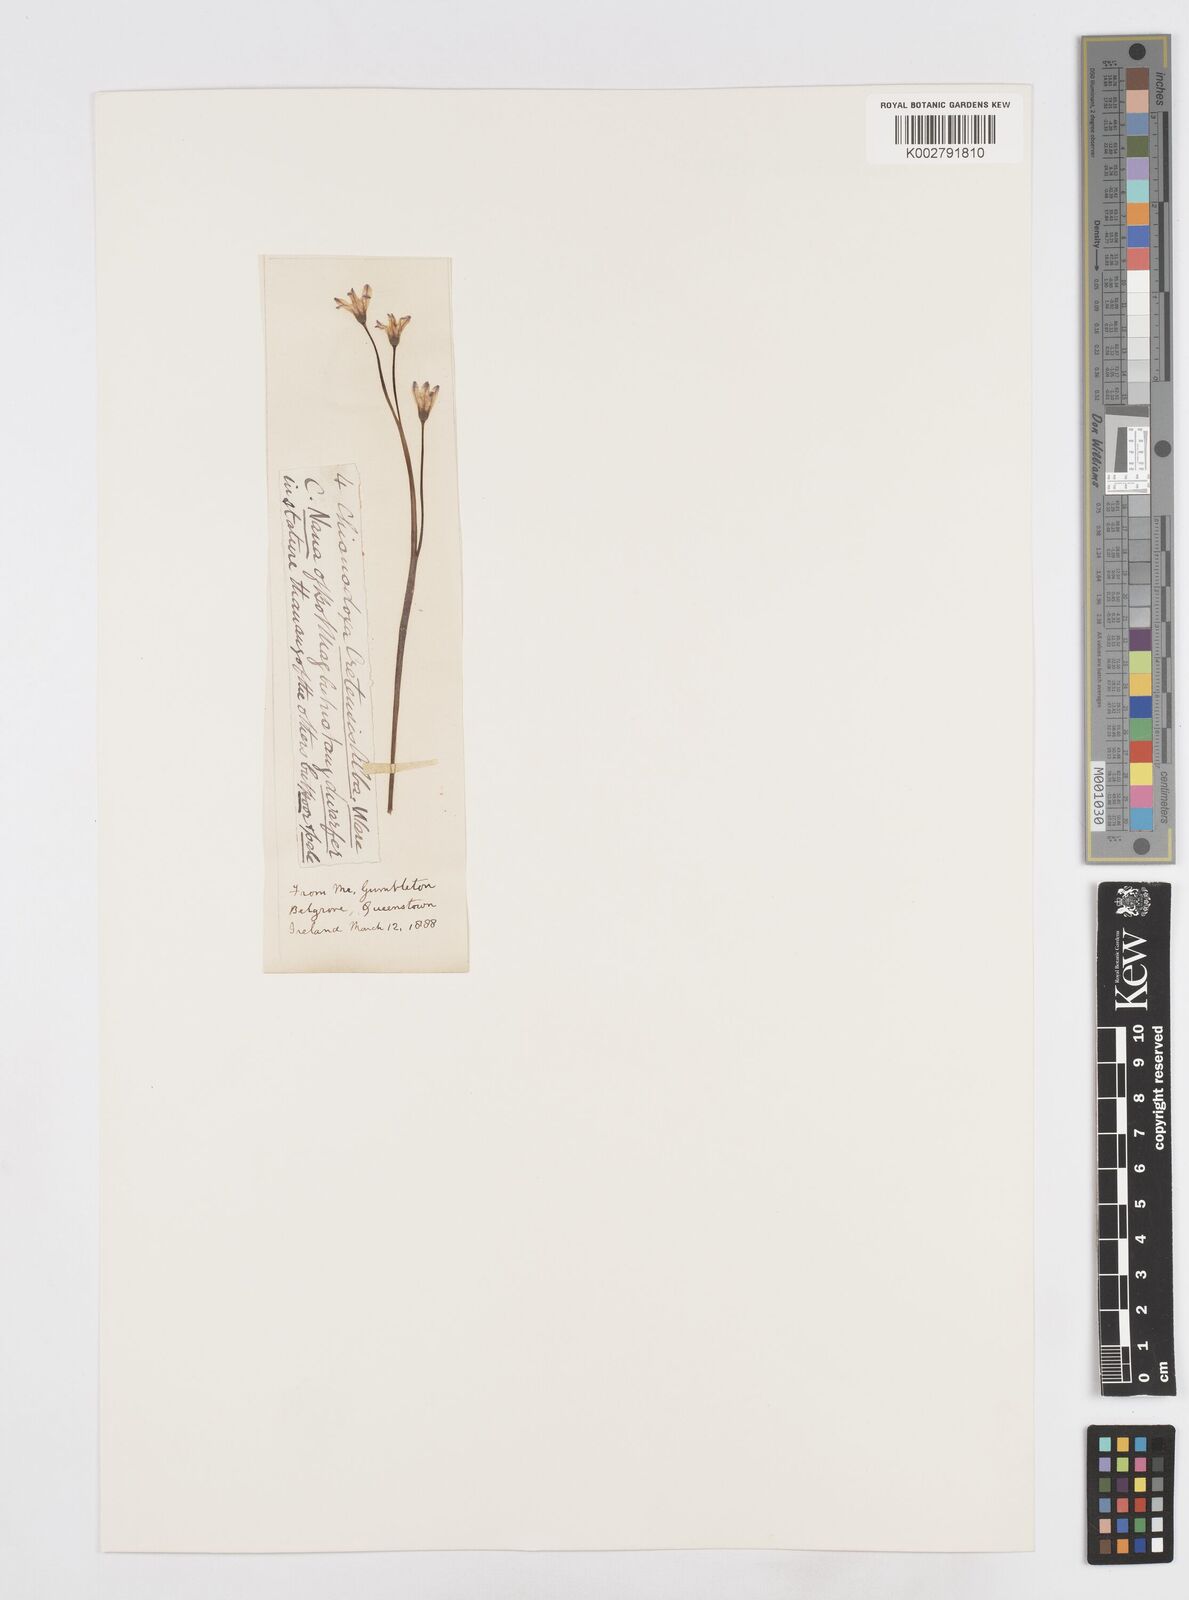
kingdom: Plantae
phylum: Tracheophyta
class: Liliopsida
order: Asparagales
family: Asparagaceae
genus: Scilla
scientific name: Scilla cretica
